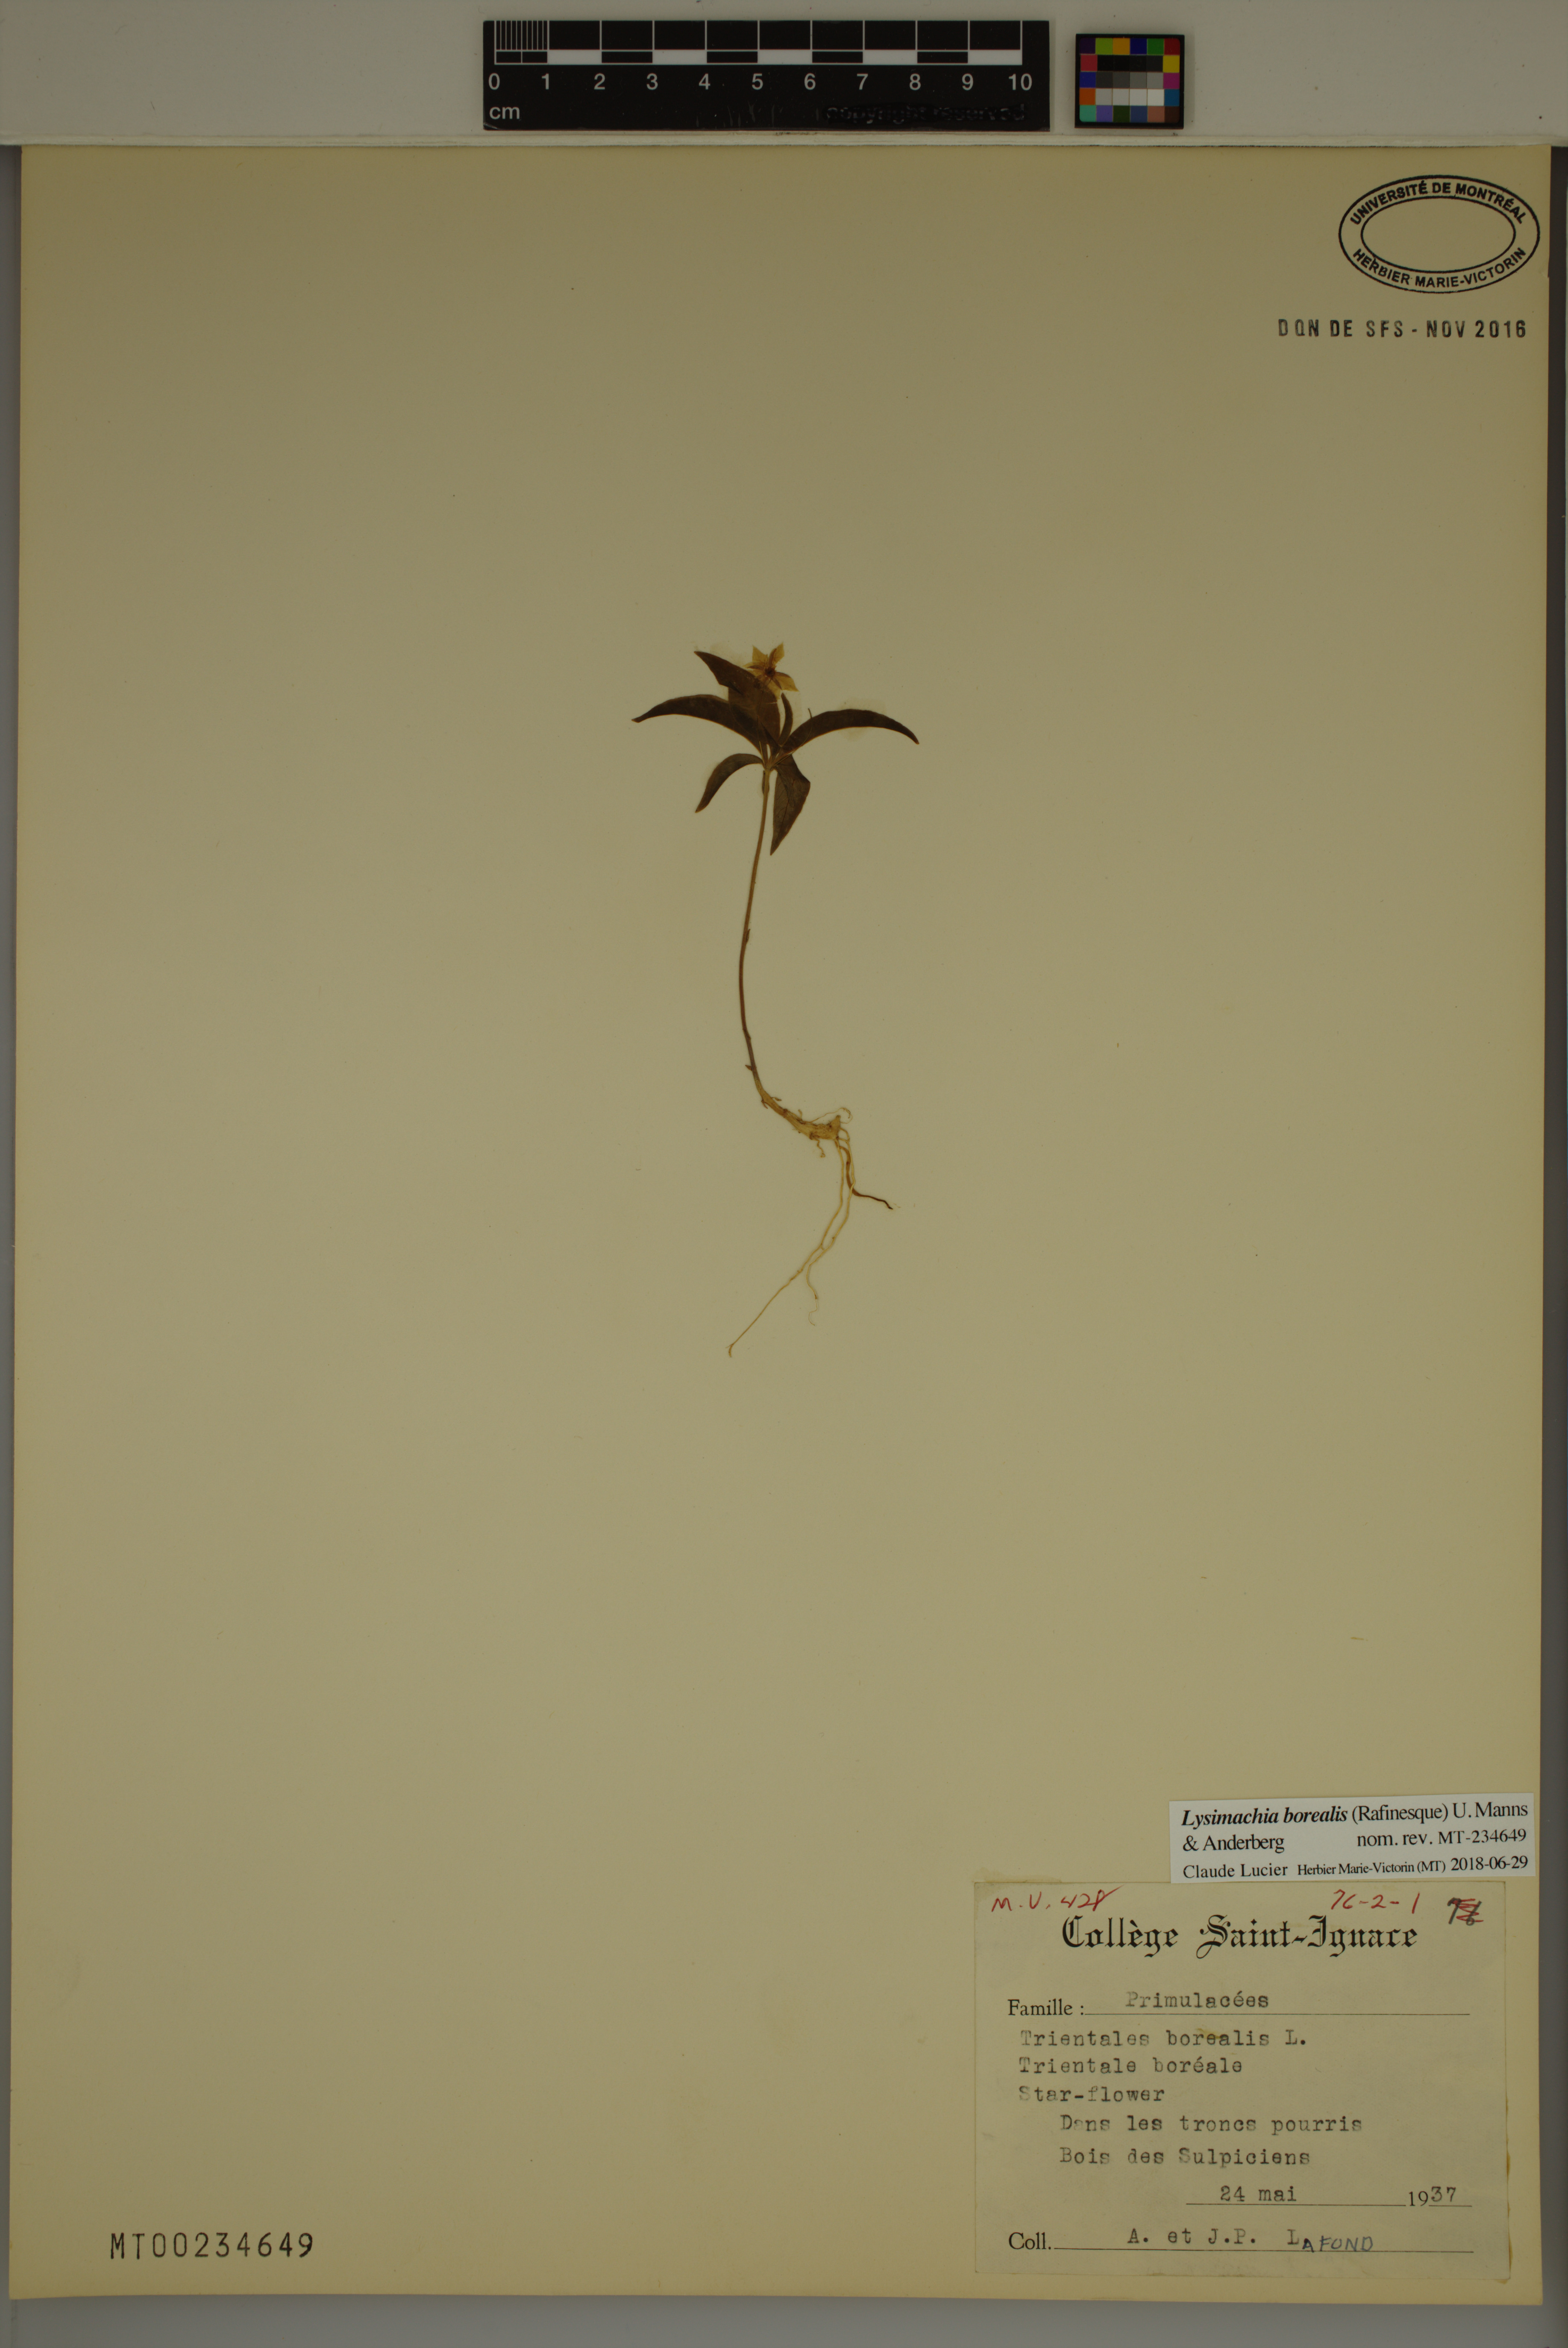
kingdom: Plantae
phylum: Tracheophyta
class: Magnoliopsida
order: Ericales
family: Primulaceae
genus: Lysimachia
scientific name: Lysimachia borealis
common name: American starflower
